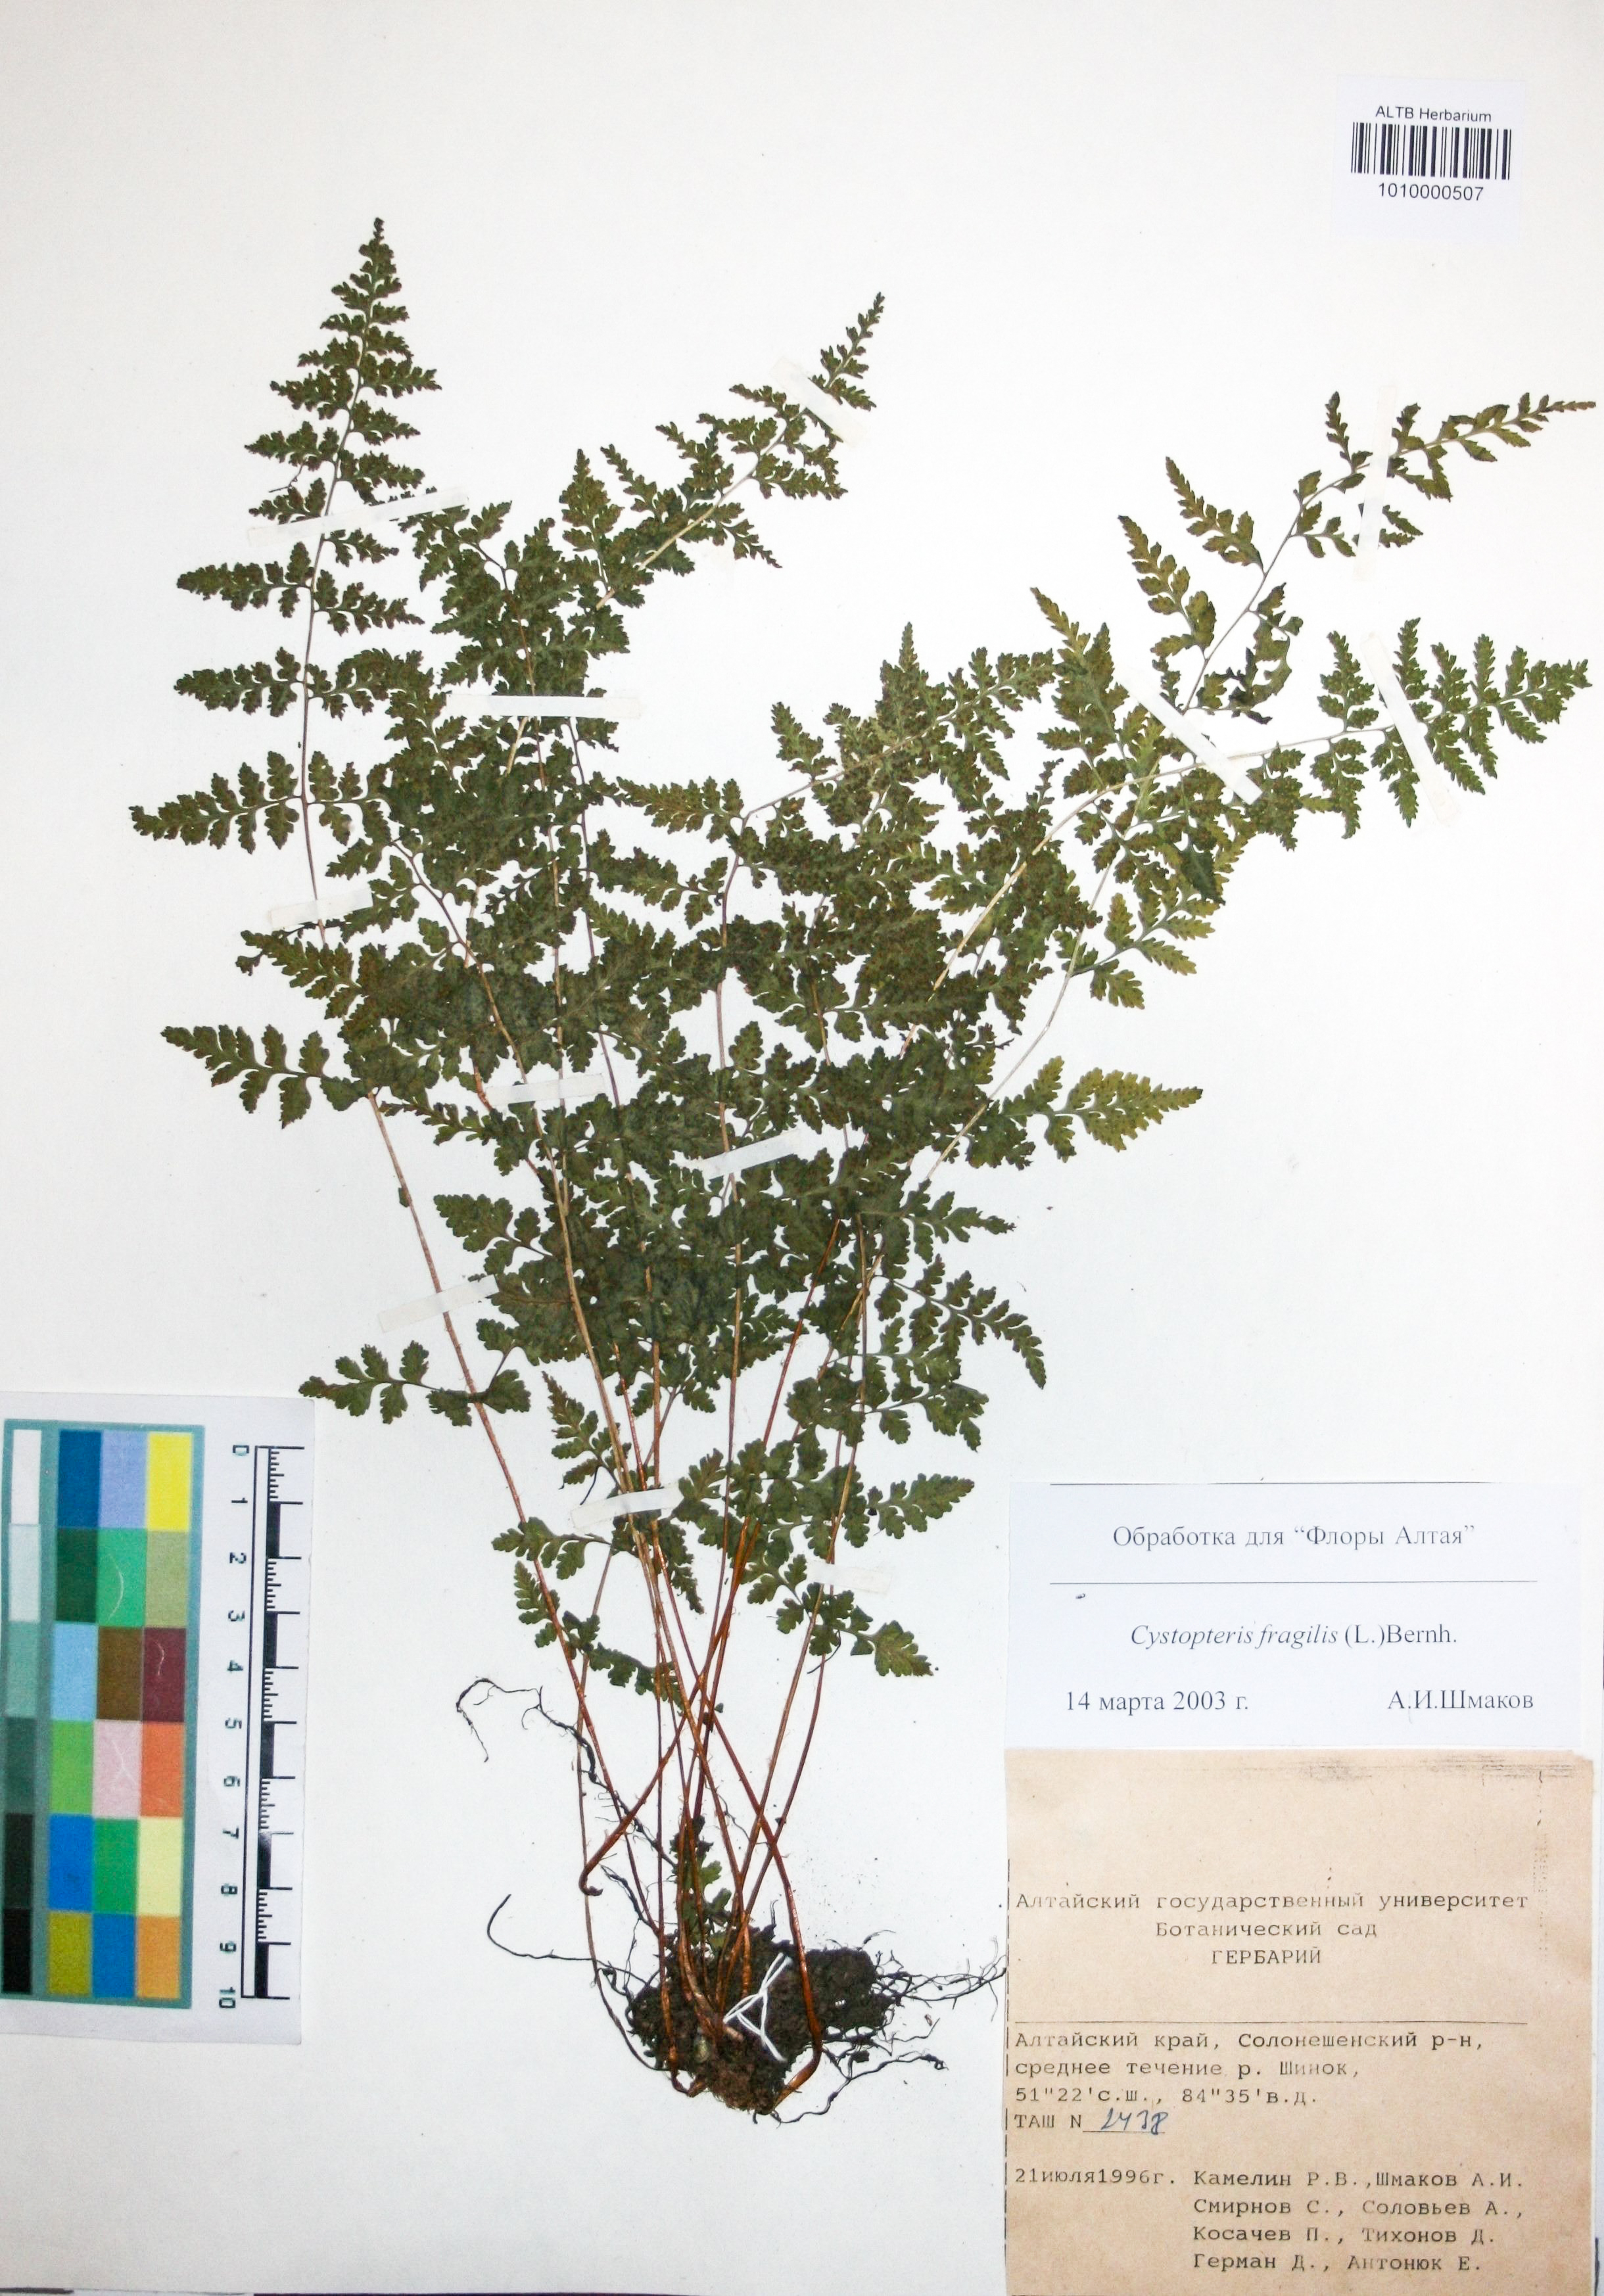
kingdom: Plantae
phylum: Tracheophyta
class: Polypodiopsida
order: Polypodiales
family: Cystopteridaceae
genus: Cystopteris
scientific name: Cystopteris fragilis
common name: Brittle bladder fern
